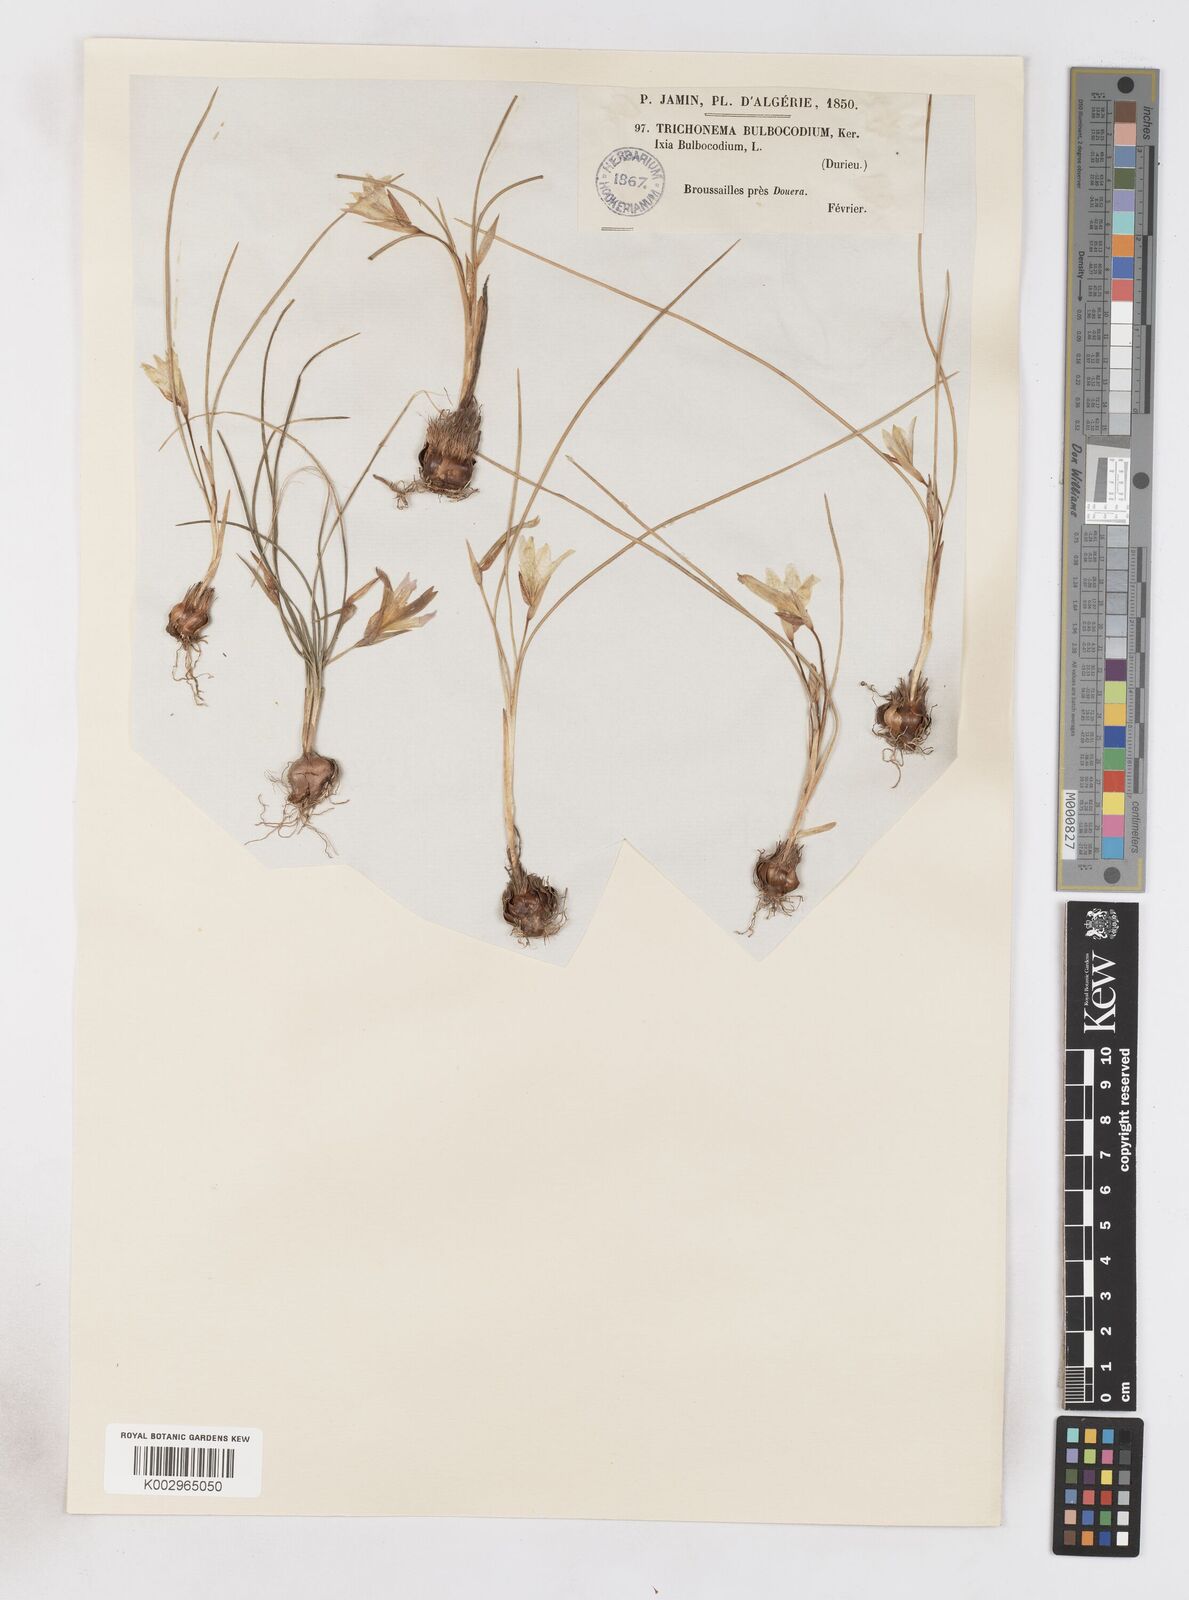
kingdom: Plantae
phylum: Tracheophyta
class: Liliopsida
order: Asparagales
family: Iridaceae
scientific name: Iridaceae
